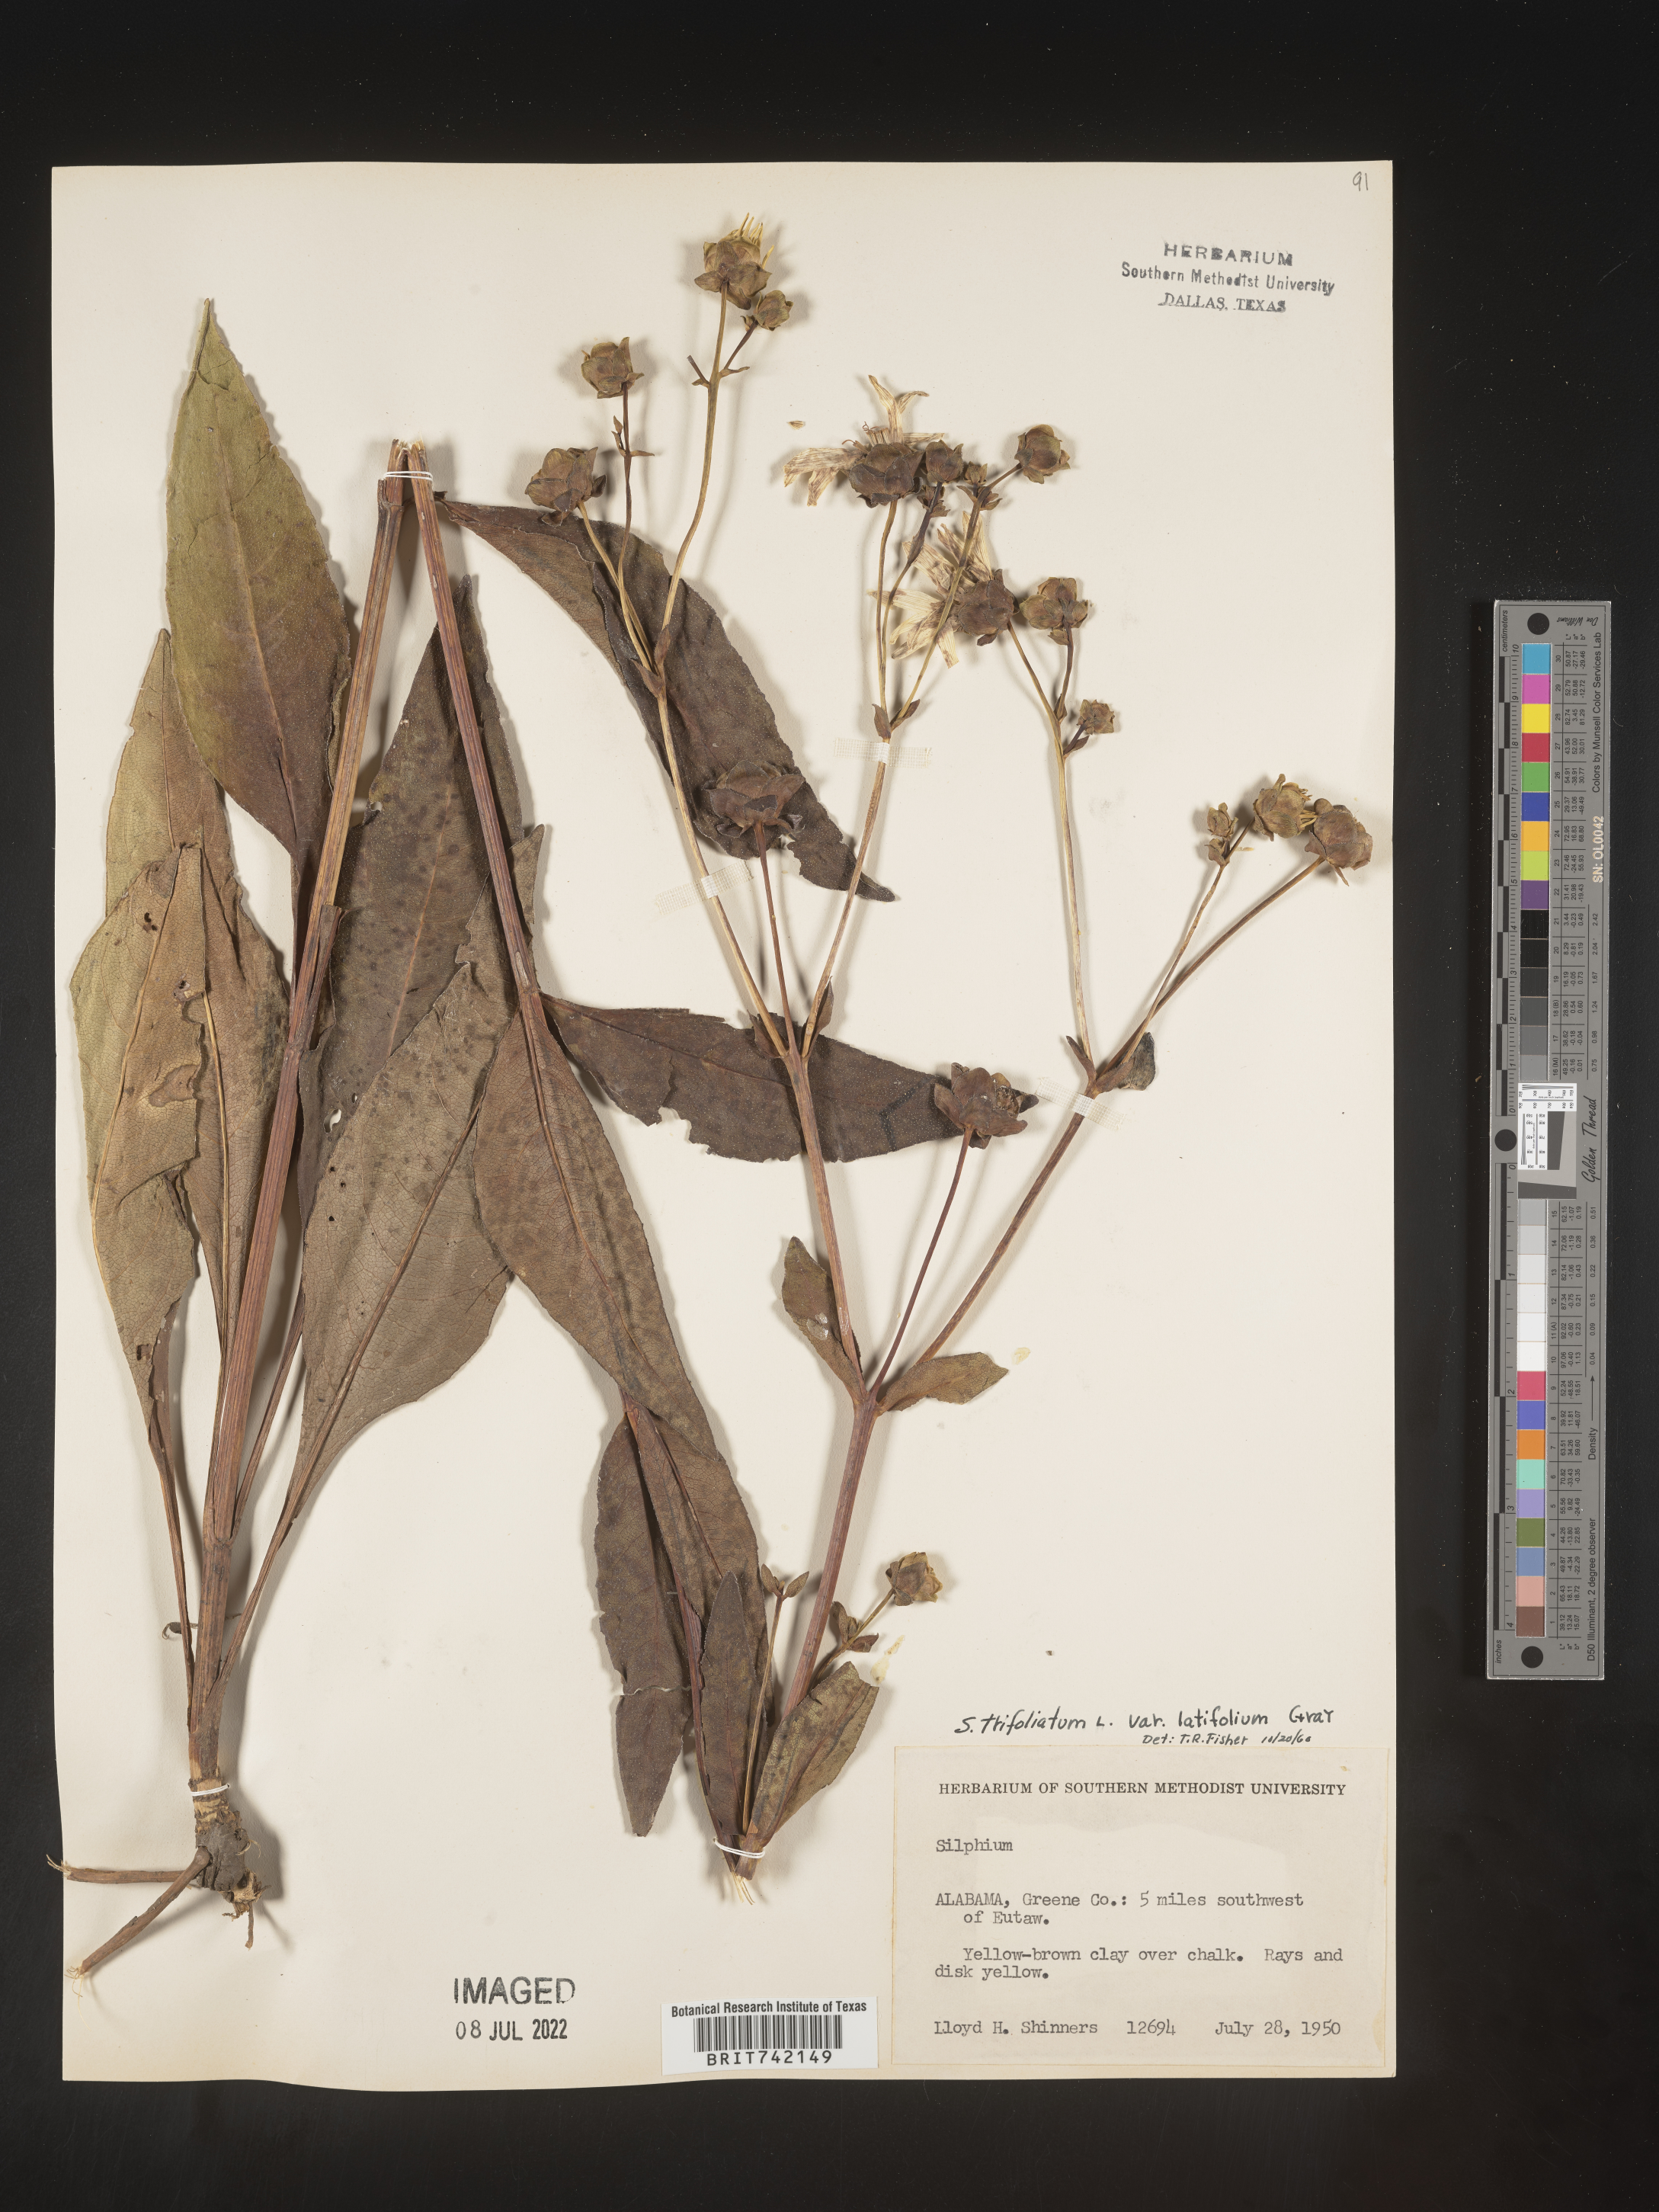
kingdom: Plantae
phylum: Tracheophyta
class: Magnoliopsida
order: Asterales
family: Asteraceae
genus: Silphium
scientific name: Silphium glabrum
